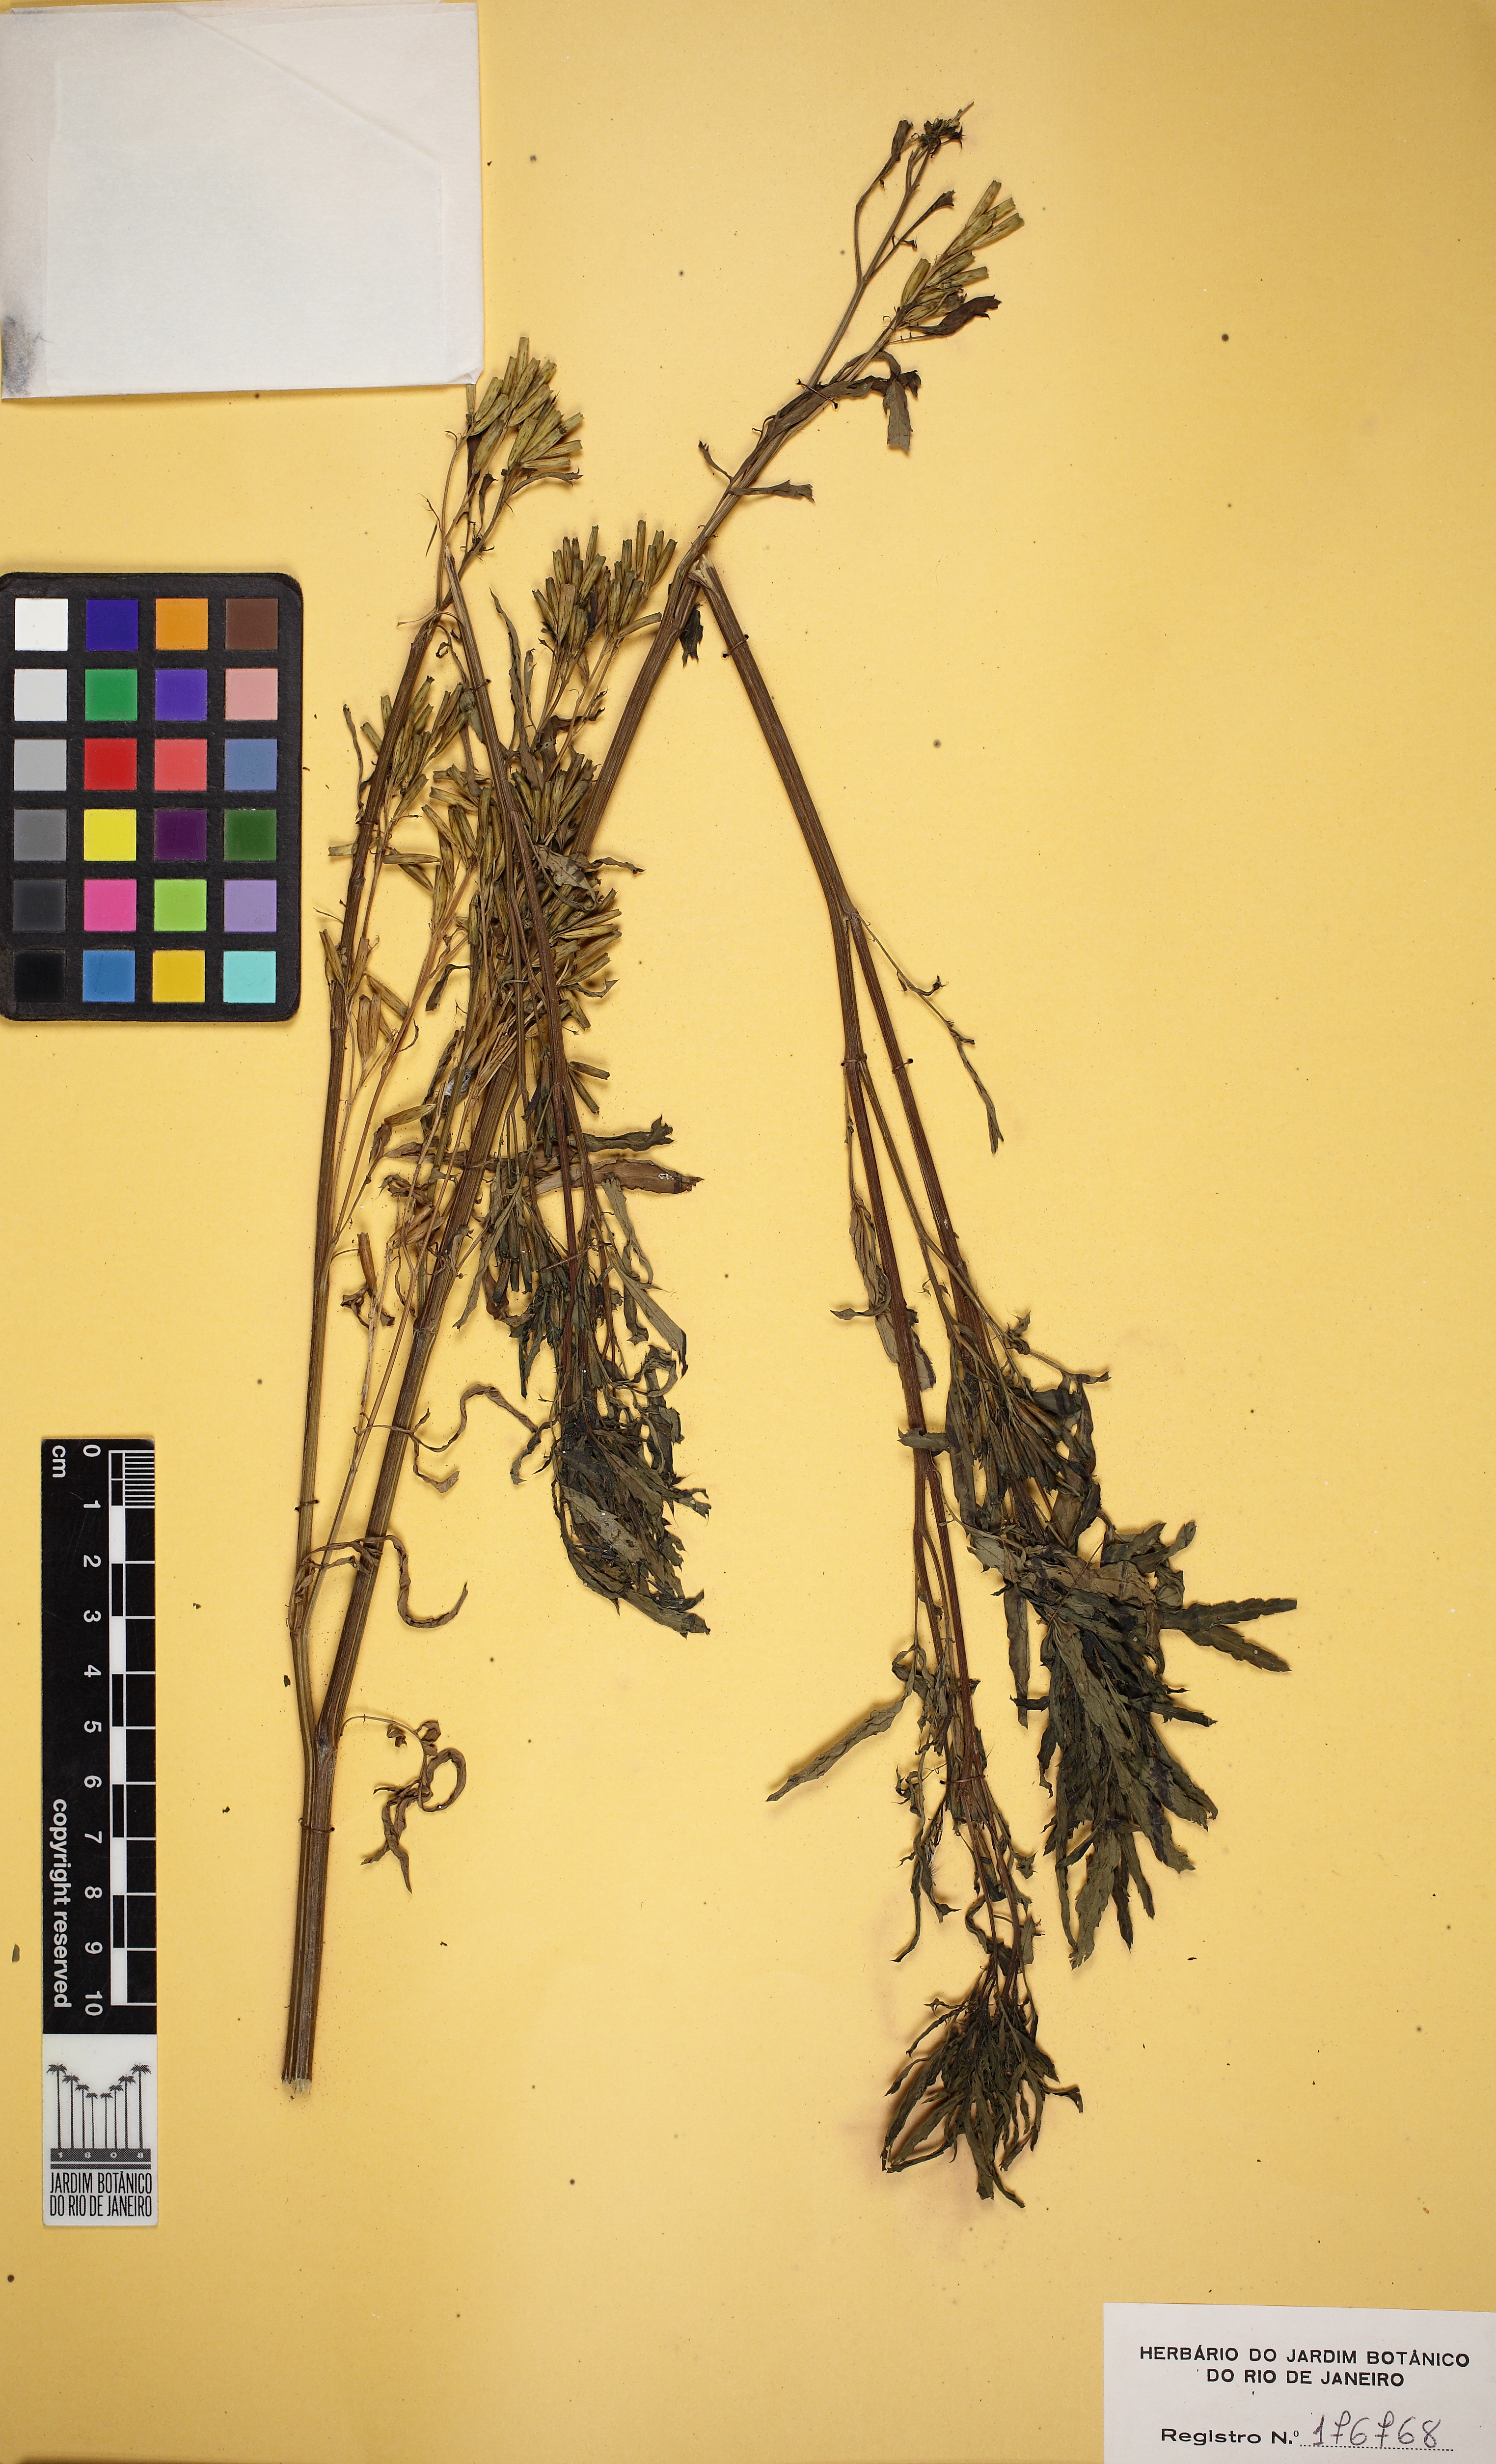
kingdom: Plantae
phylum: Tracheophyta
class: Magnoliopsida
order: Asterales
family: Asteraceae
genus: Tagetes
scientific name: Tagetes minuta
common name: Muster john henry
